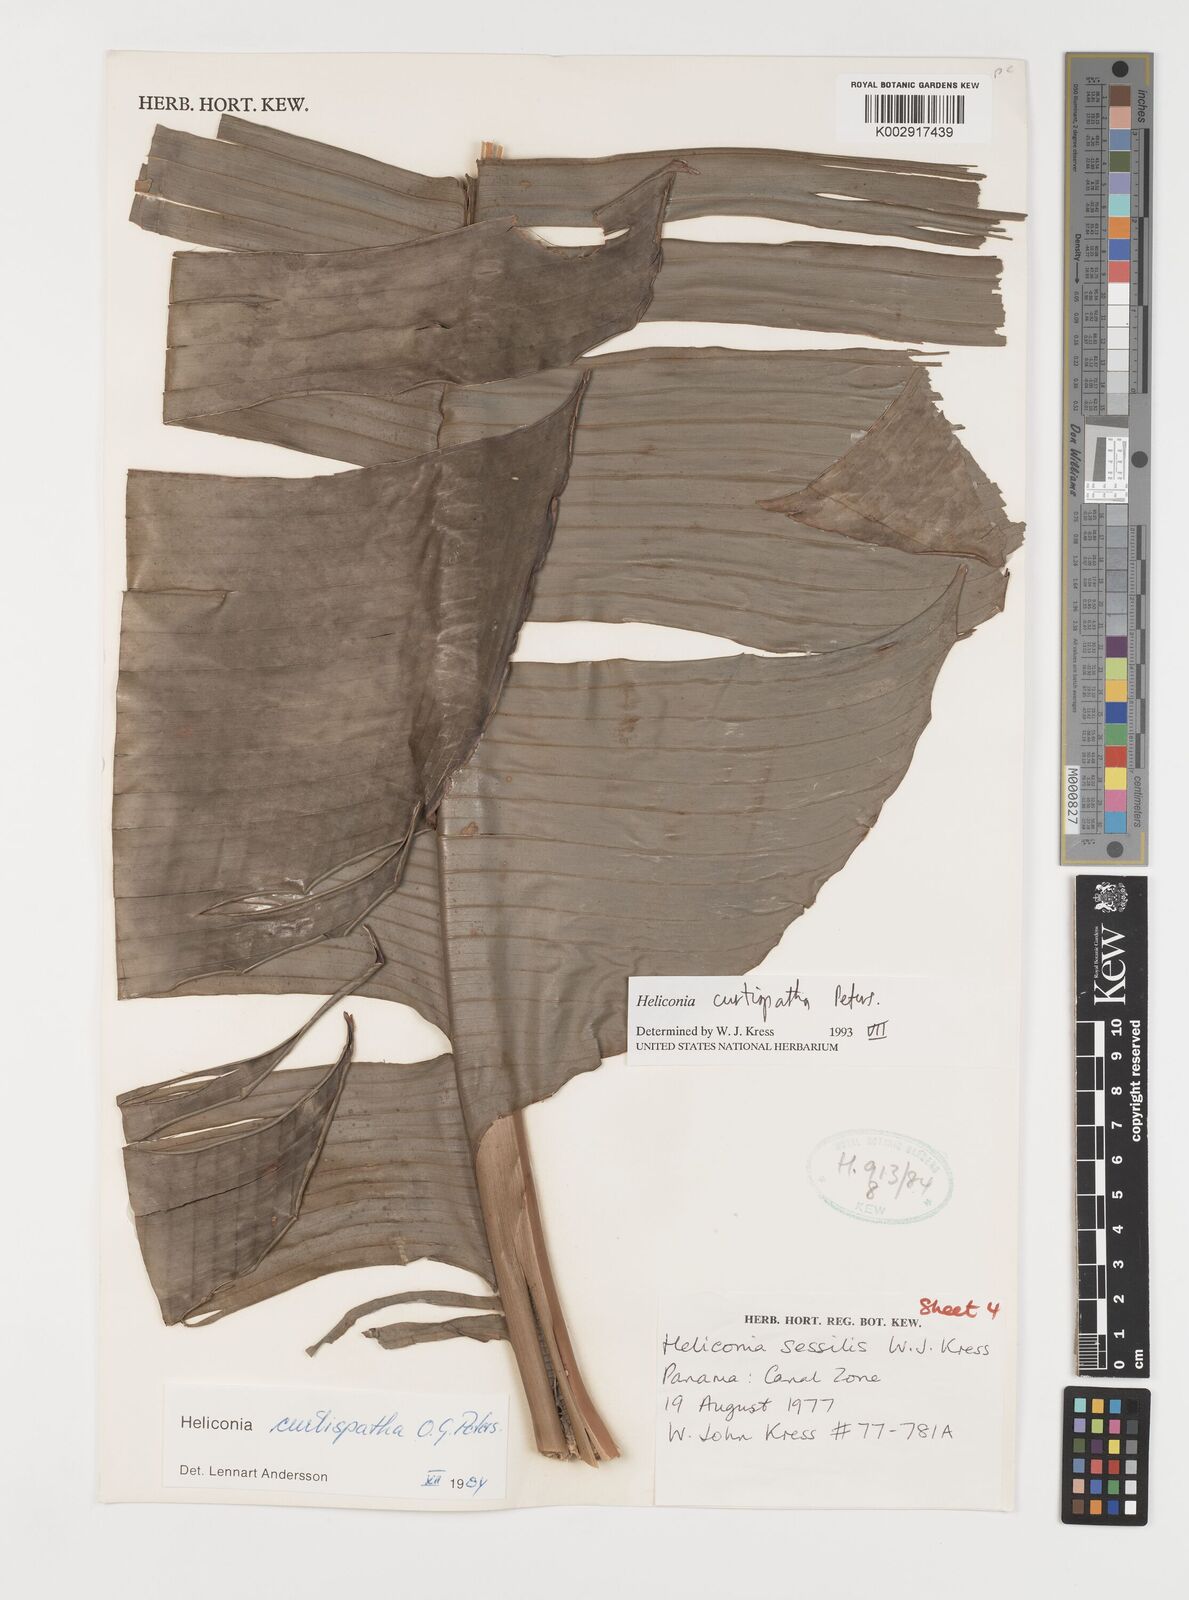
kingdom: Plantae
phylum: Tracheophyta
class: Liliopsida
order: Zingiberales
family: Heliconiaceae
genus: Heliconia
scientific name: Heliconia curtispatha
